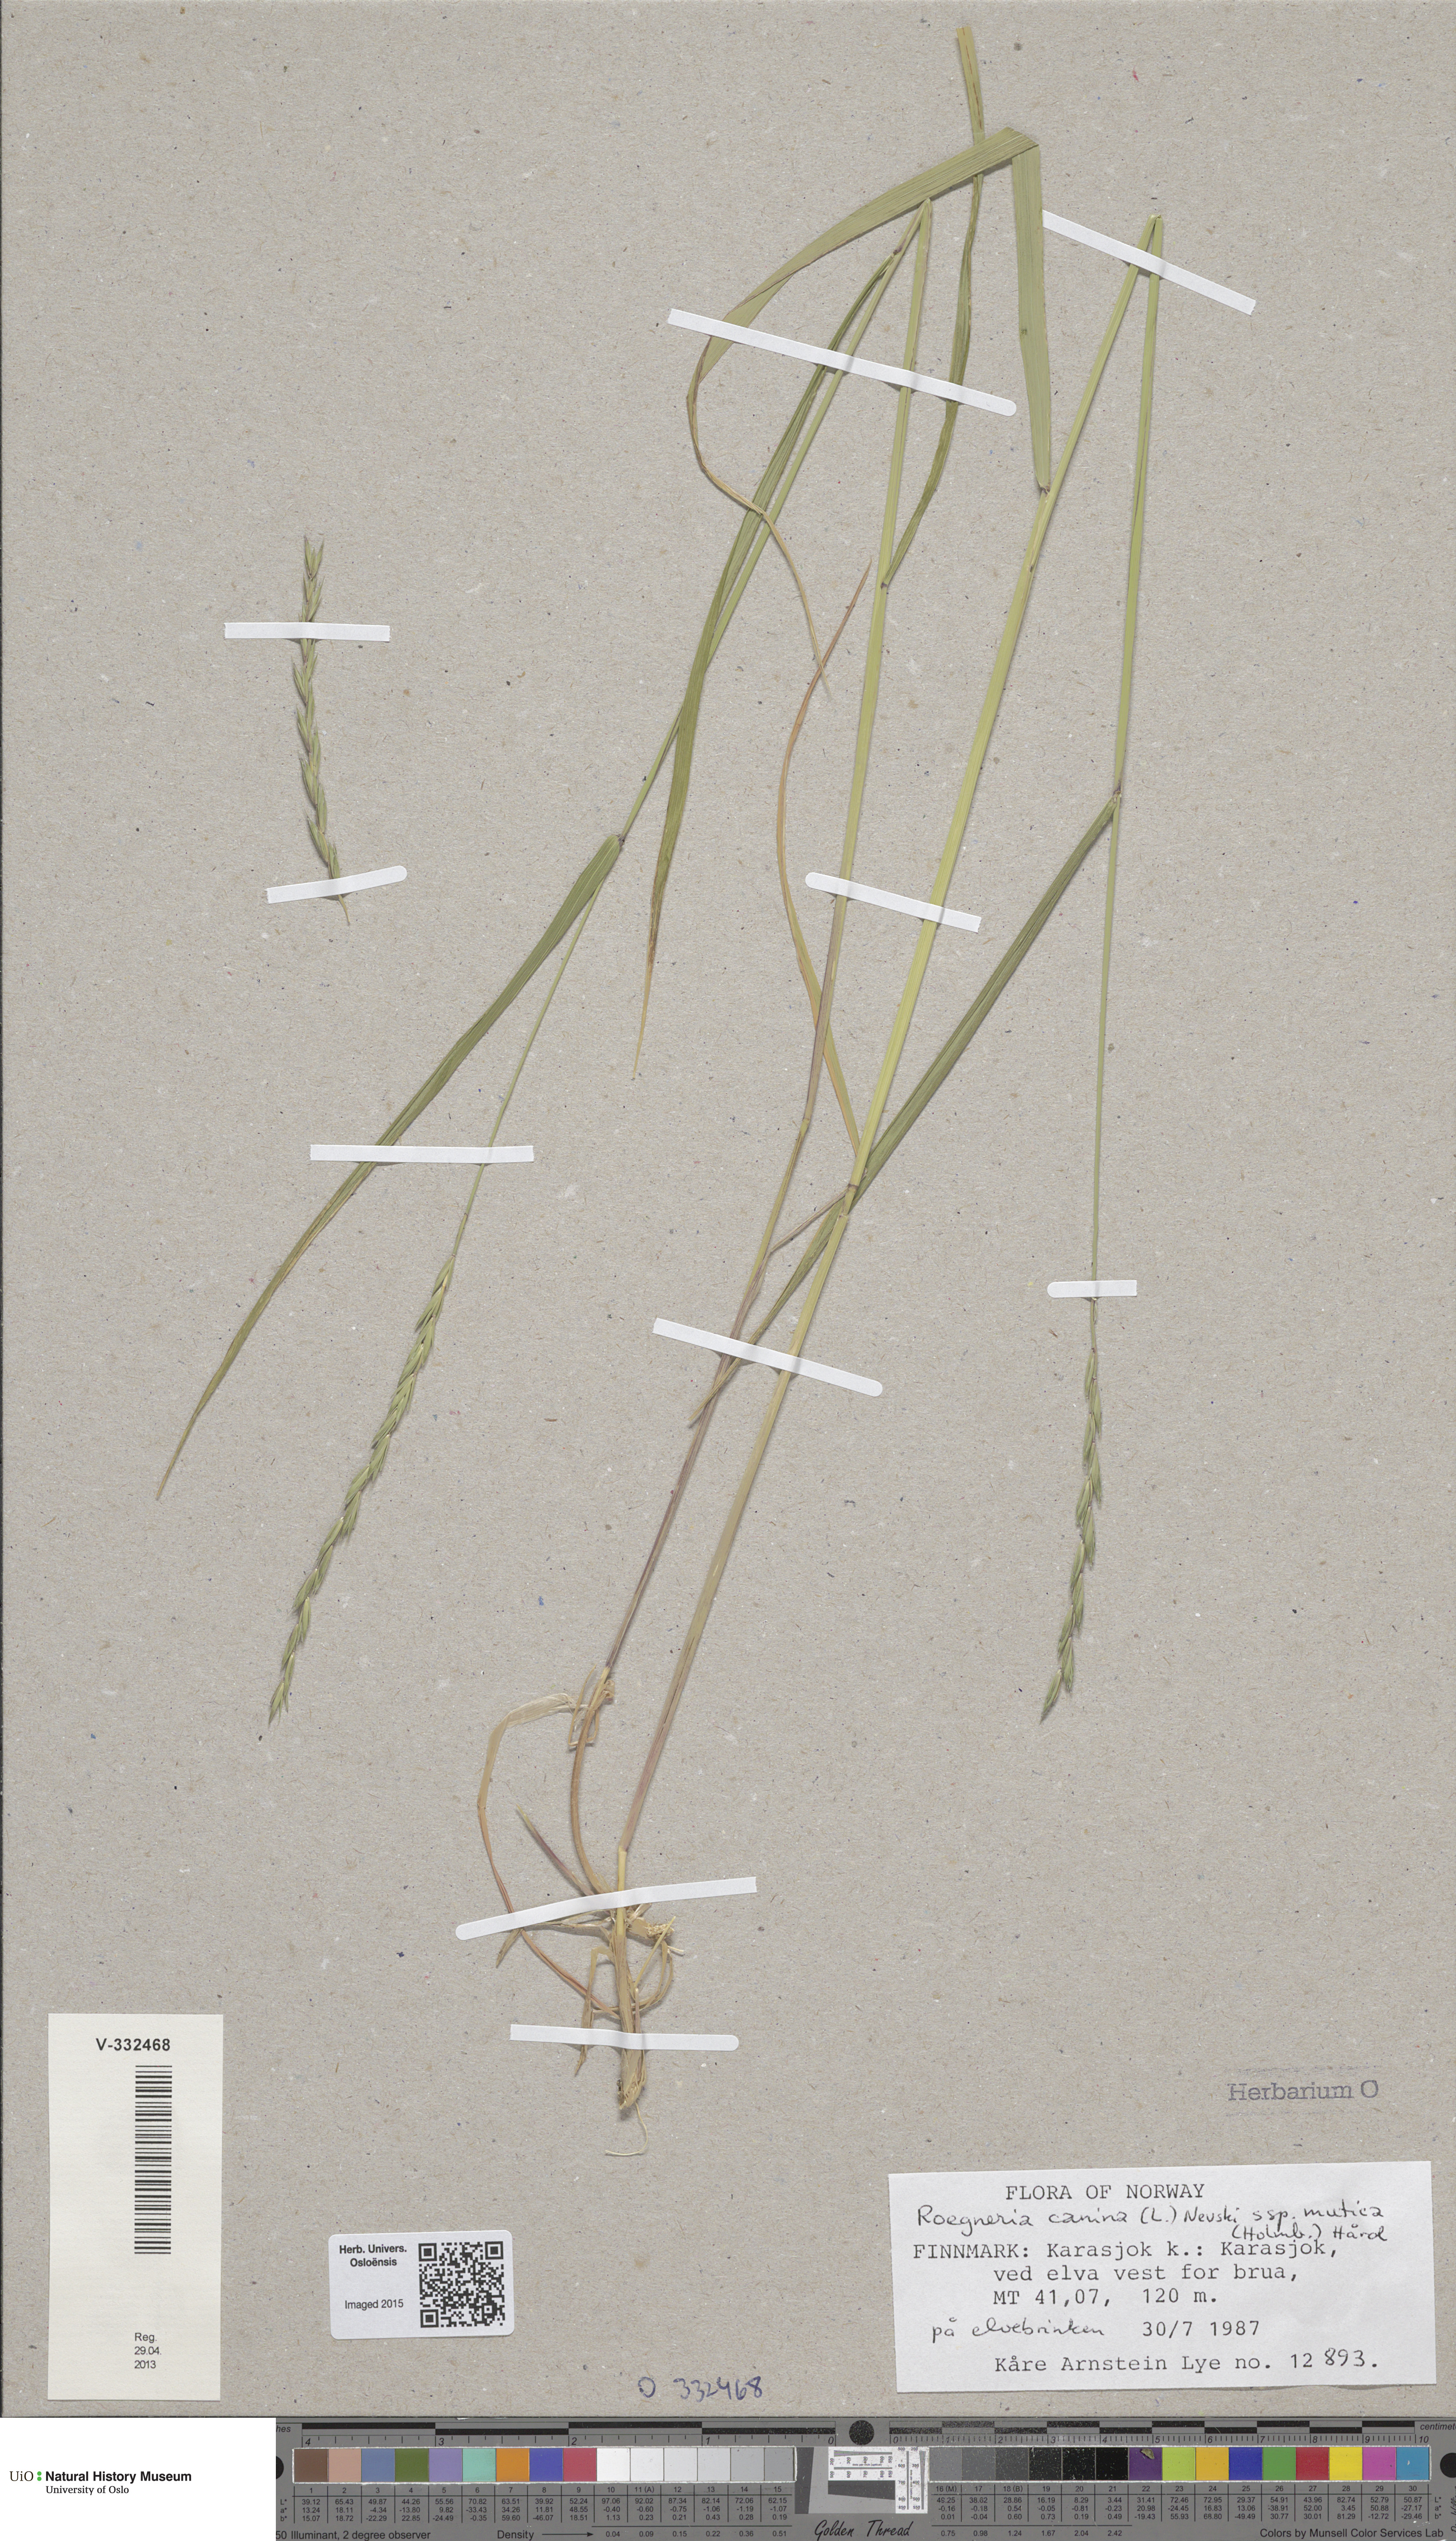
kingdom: Plantae
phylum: Tracheophyta
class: Liliopsida
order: Poales
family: Poaceae
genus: Elymus
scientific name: Elymus caninus
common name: Bearded couch
